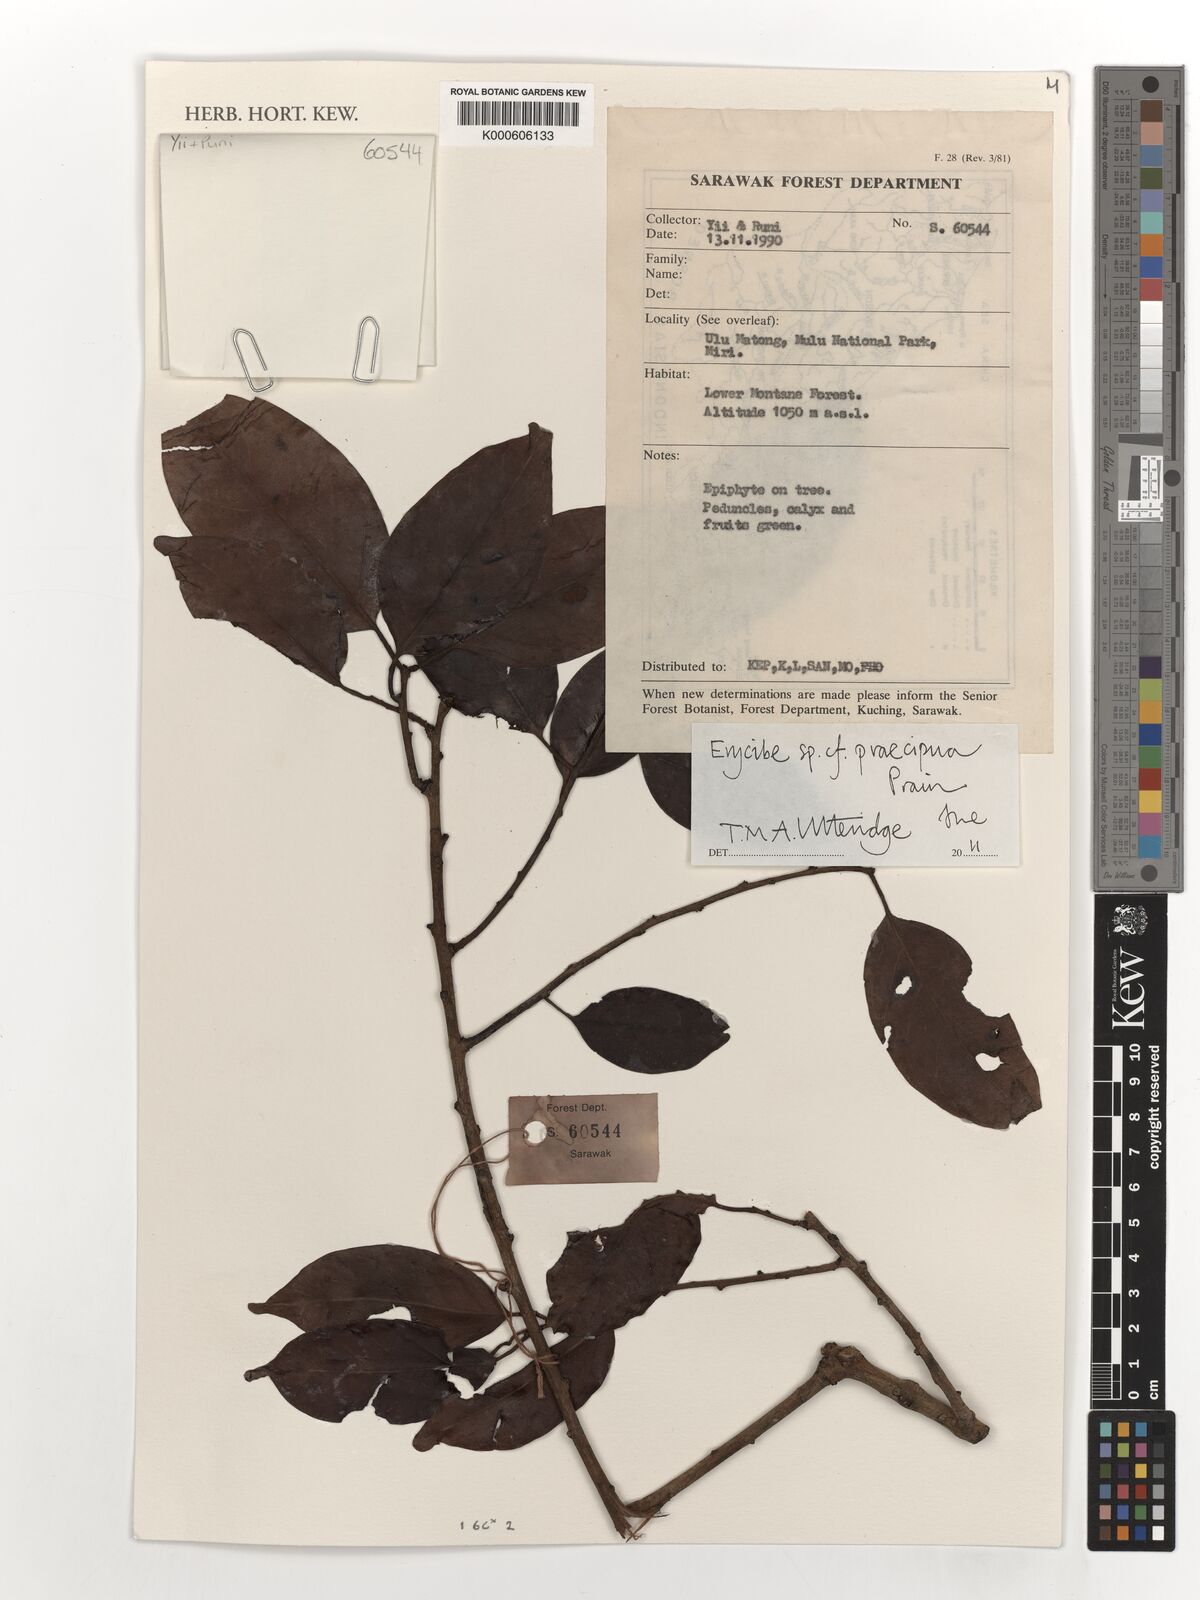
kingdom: Plantae
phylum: Tracheophyta
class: Magnoliopsida
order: Solanales
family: Convolvulaceae
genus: Erycibe
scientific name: Erycibe
